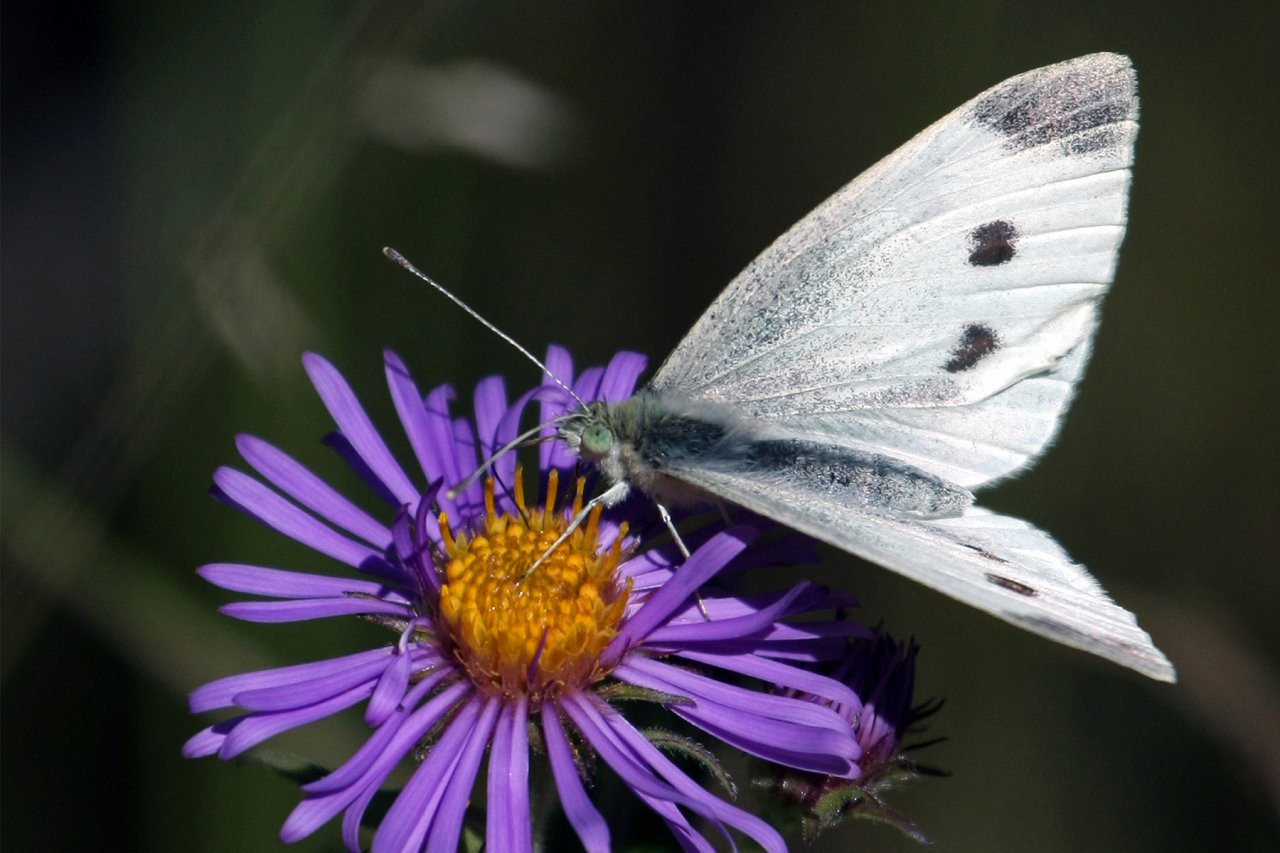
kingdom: Animalia
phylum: Arthropoda
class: Insecta
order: Lepidoptera
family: Pieridae
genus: Pieris
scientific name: Pieris rapae
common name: Cabbage White
